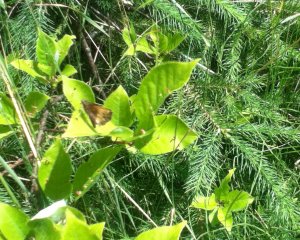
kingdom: Animalia
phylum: Arthropoda
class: Insecta
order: Lepidoptera
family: Hesperiidae
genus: Lon
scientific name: Lon hobomok
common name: Hobomok Skipper
